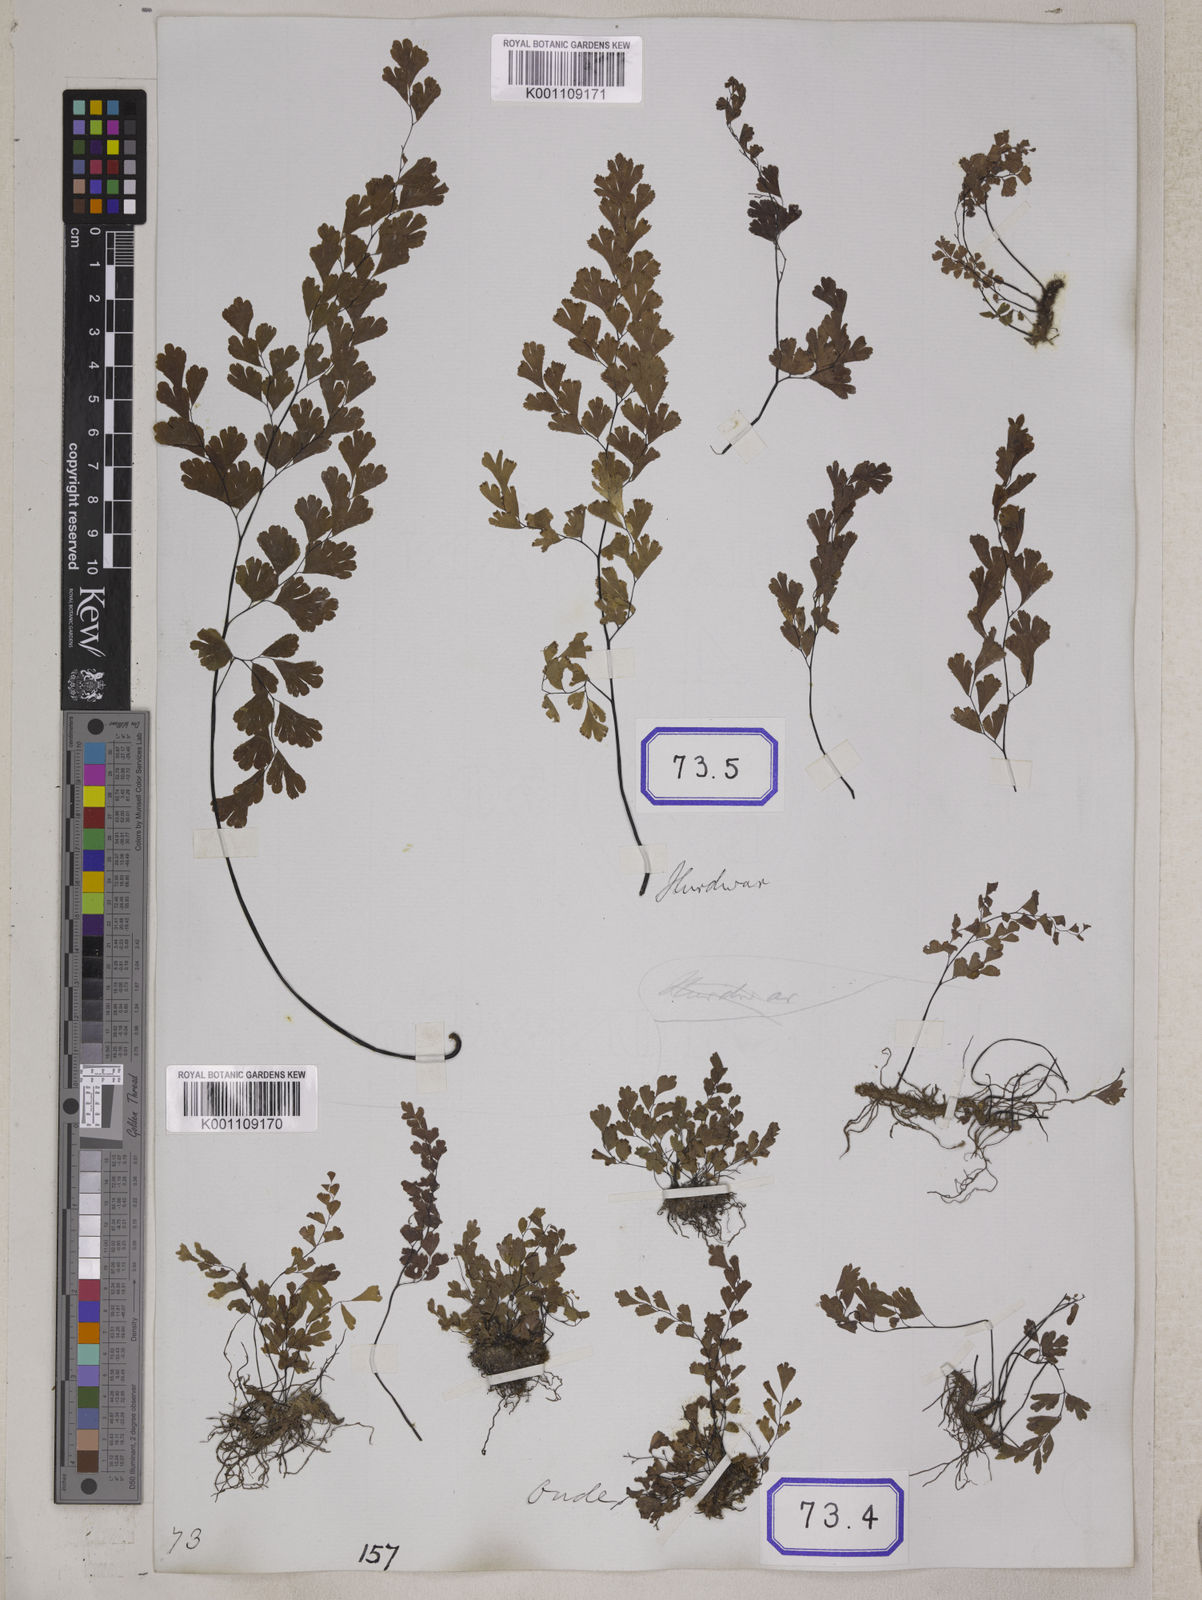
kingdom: Plantae
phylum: Tracheophyta
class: Polypodiopsida
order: Polypodiales
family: Pteridaceae
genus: Adiantum
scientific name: Adiantum
